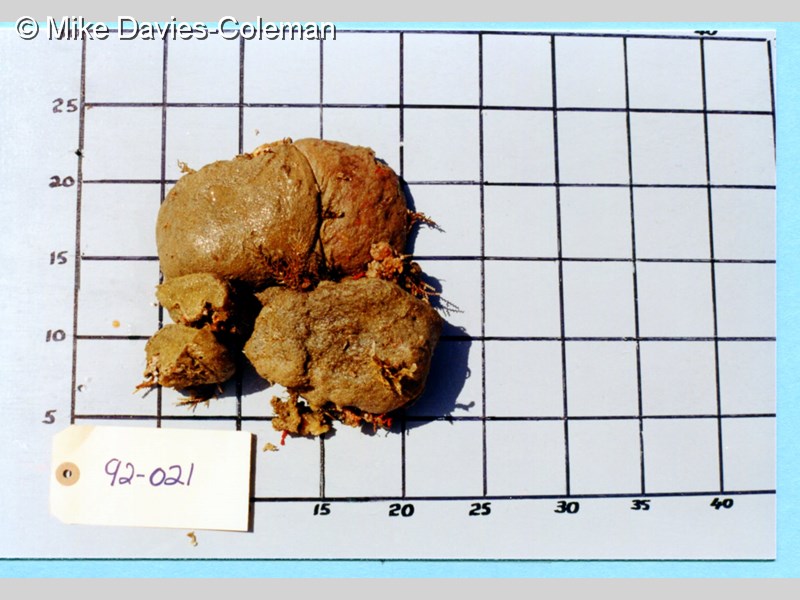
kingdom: Animalia
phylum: Chordata
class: Ascidiacea
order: Aplousobranchia
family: Polyclinidae
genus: Synoicum
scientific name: Synoicum
